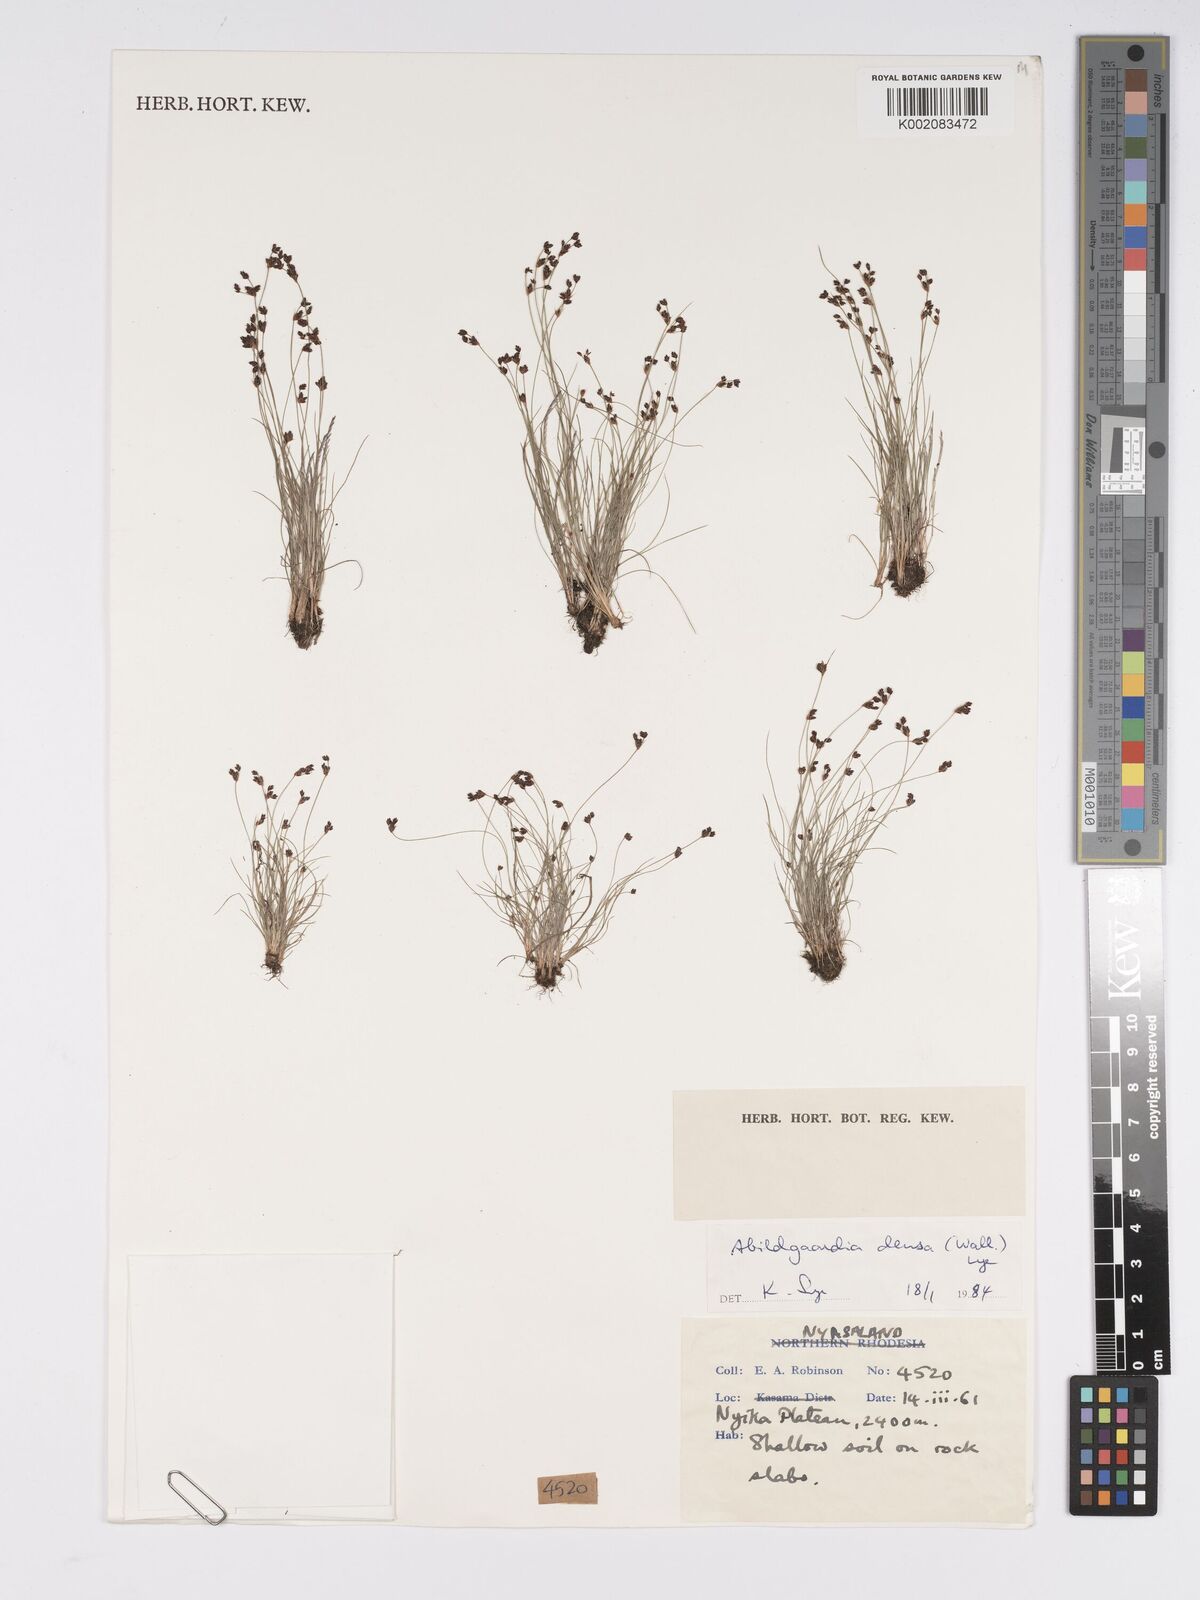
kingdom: Plantae
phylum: Tracheophyta
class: Liliopsida
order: Poales
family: Cyperaceae
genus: Bulbostylis
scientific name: Bulbostylis densa
